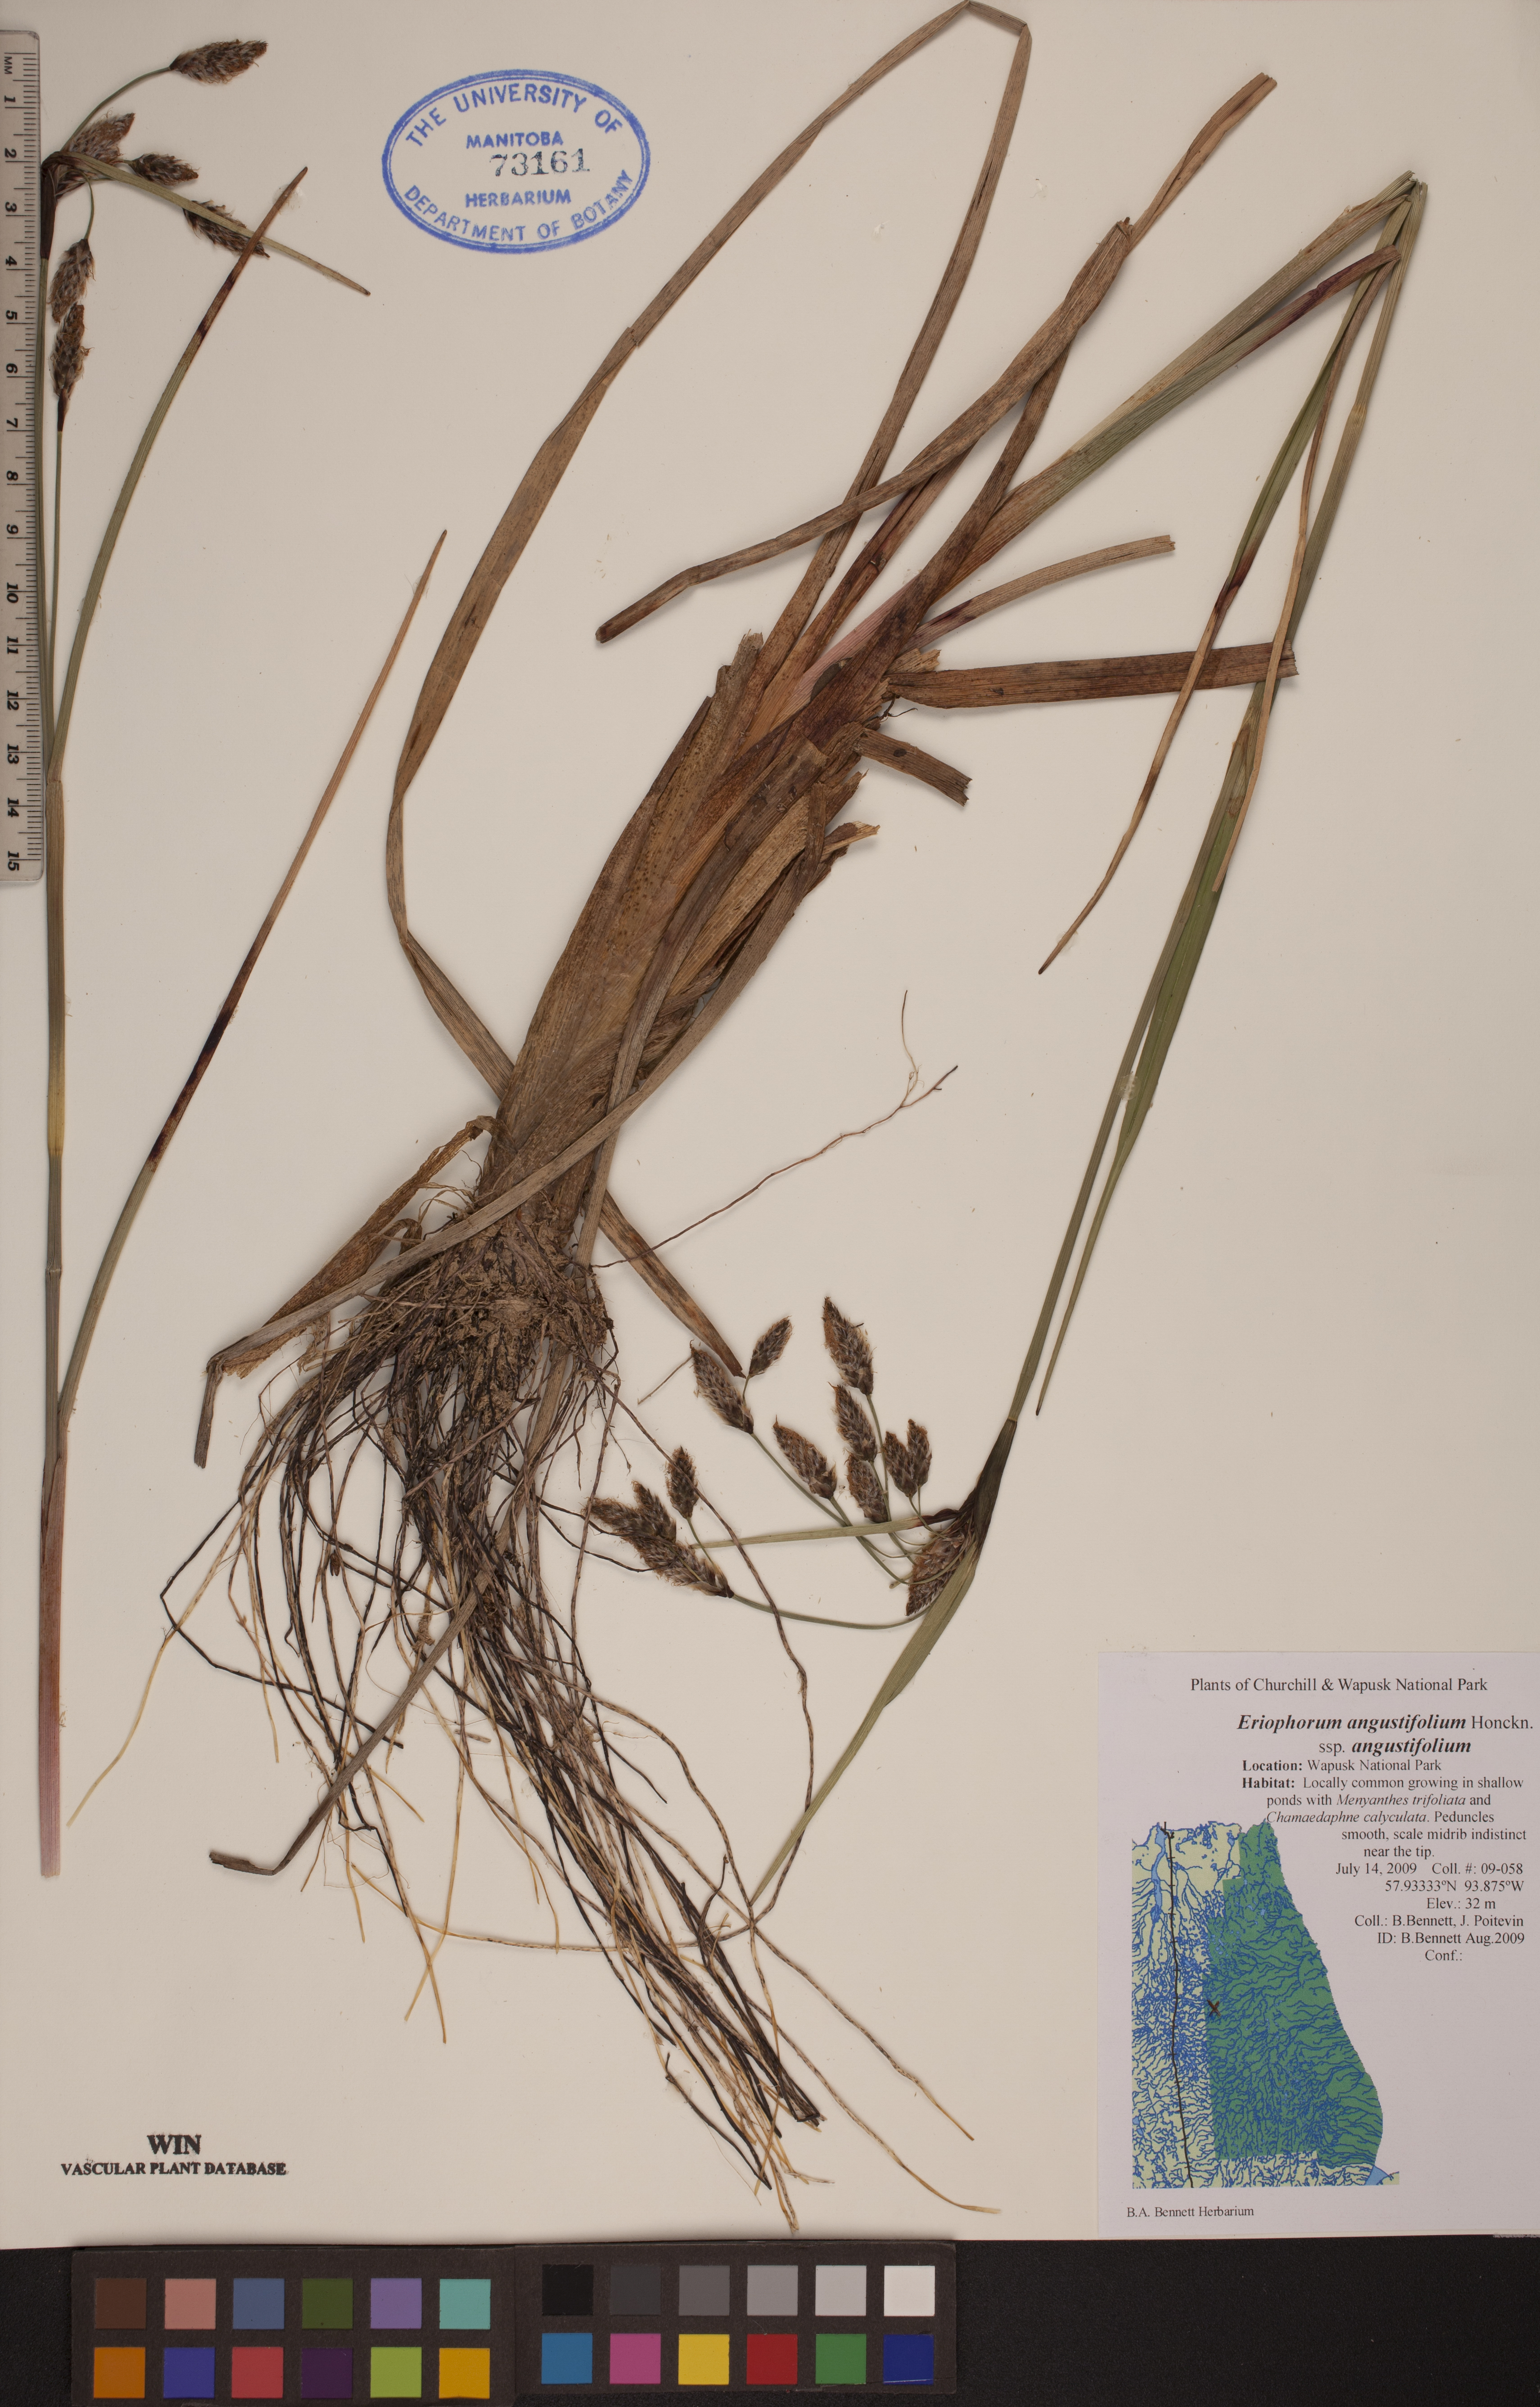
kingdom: Plantae
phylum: Tracheophyta
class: Liliopsida
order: Poales
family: Cyperaceae
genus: Eriophorum
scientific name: Eriophorum angustifolium
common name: Common cottongrass
